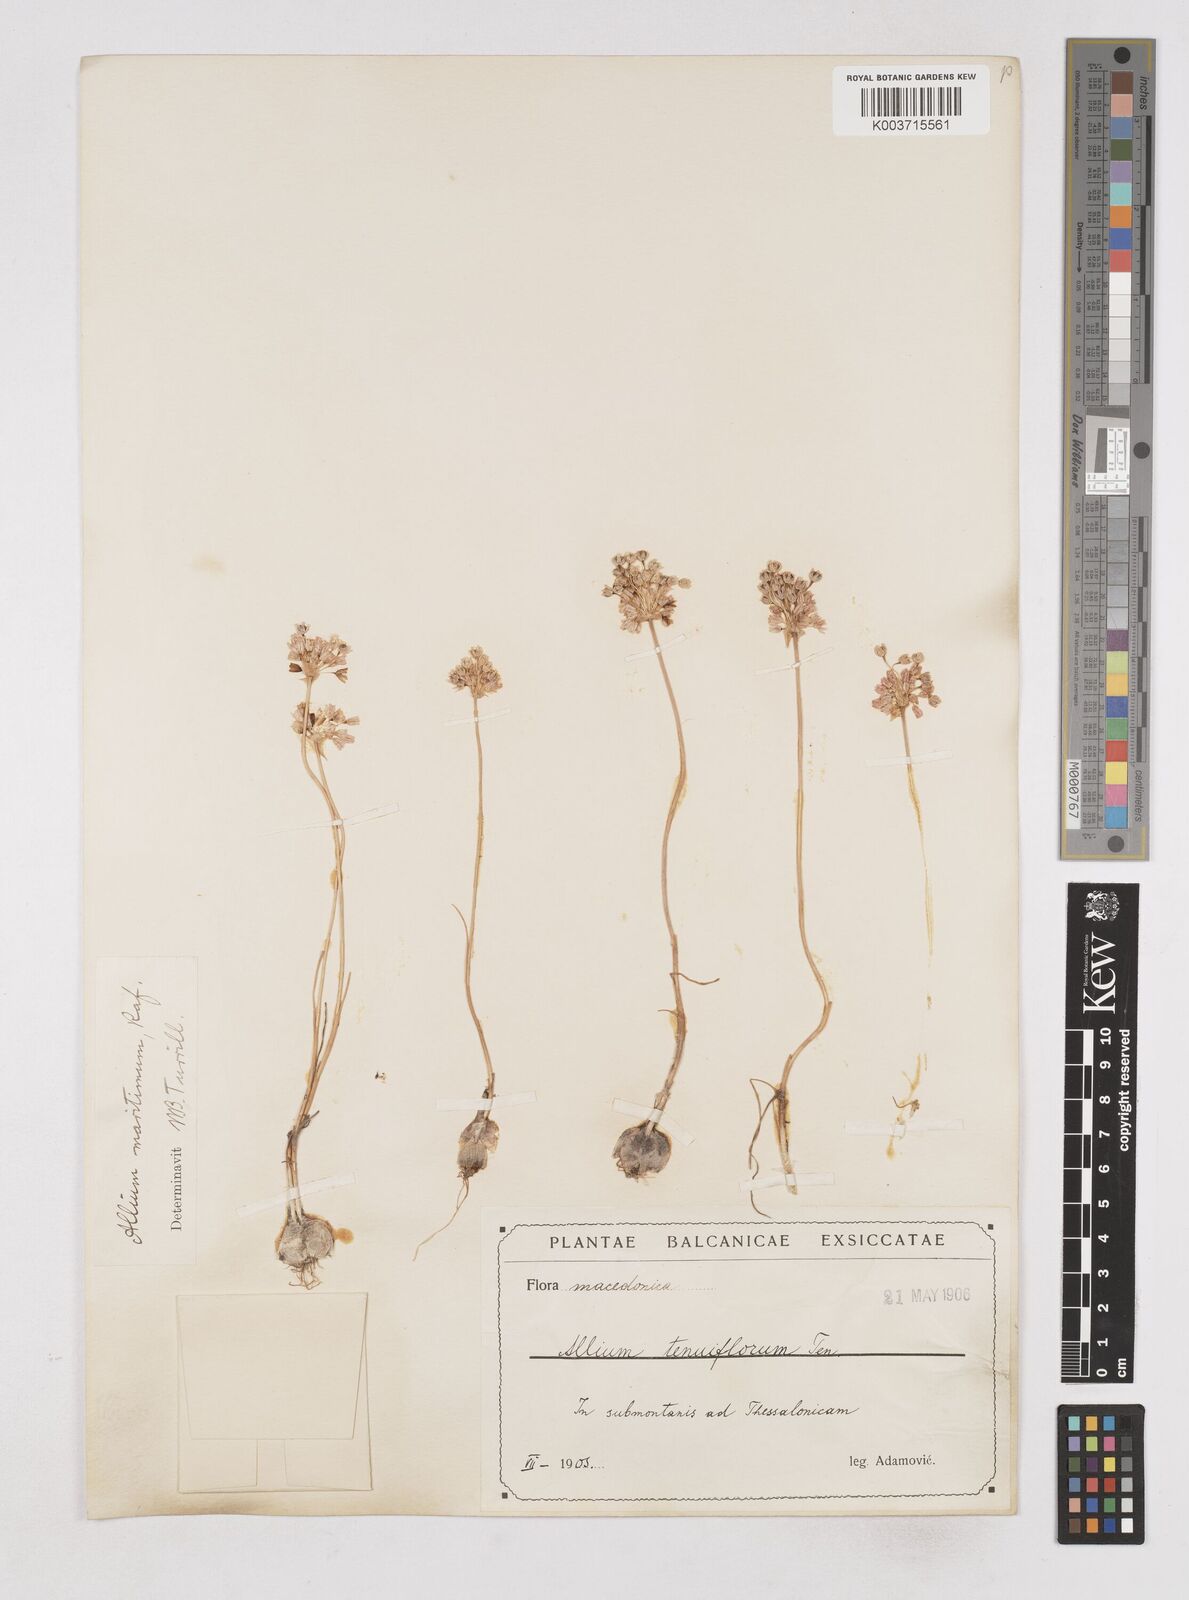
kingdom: Plantae
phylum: Tracheophyta
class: Liliopsida
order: Asparagales
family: Amaryllidaceae
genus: Allium
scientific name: Allium
